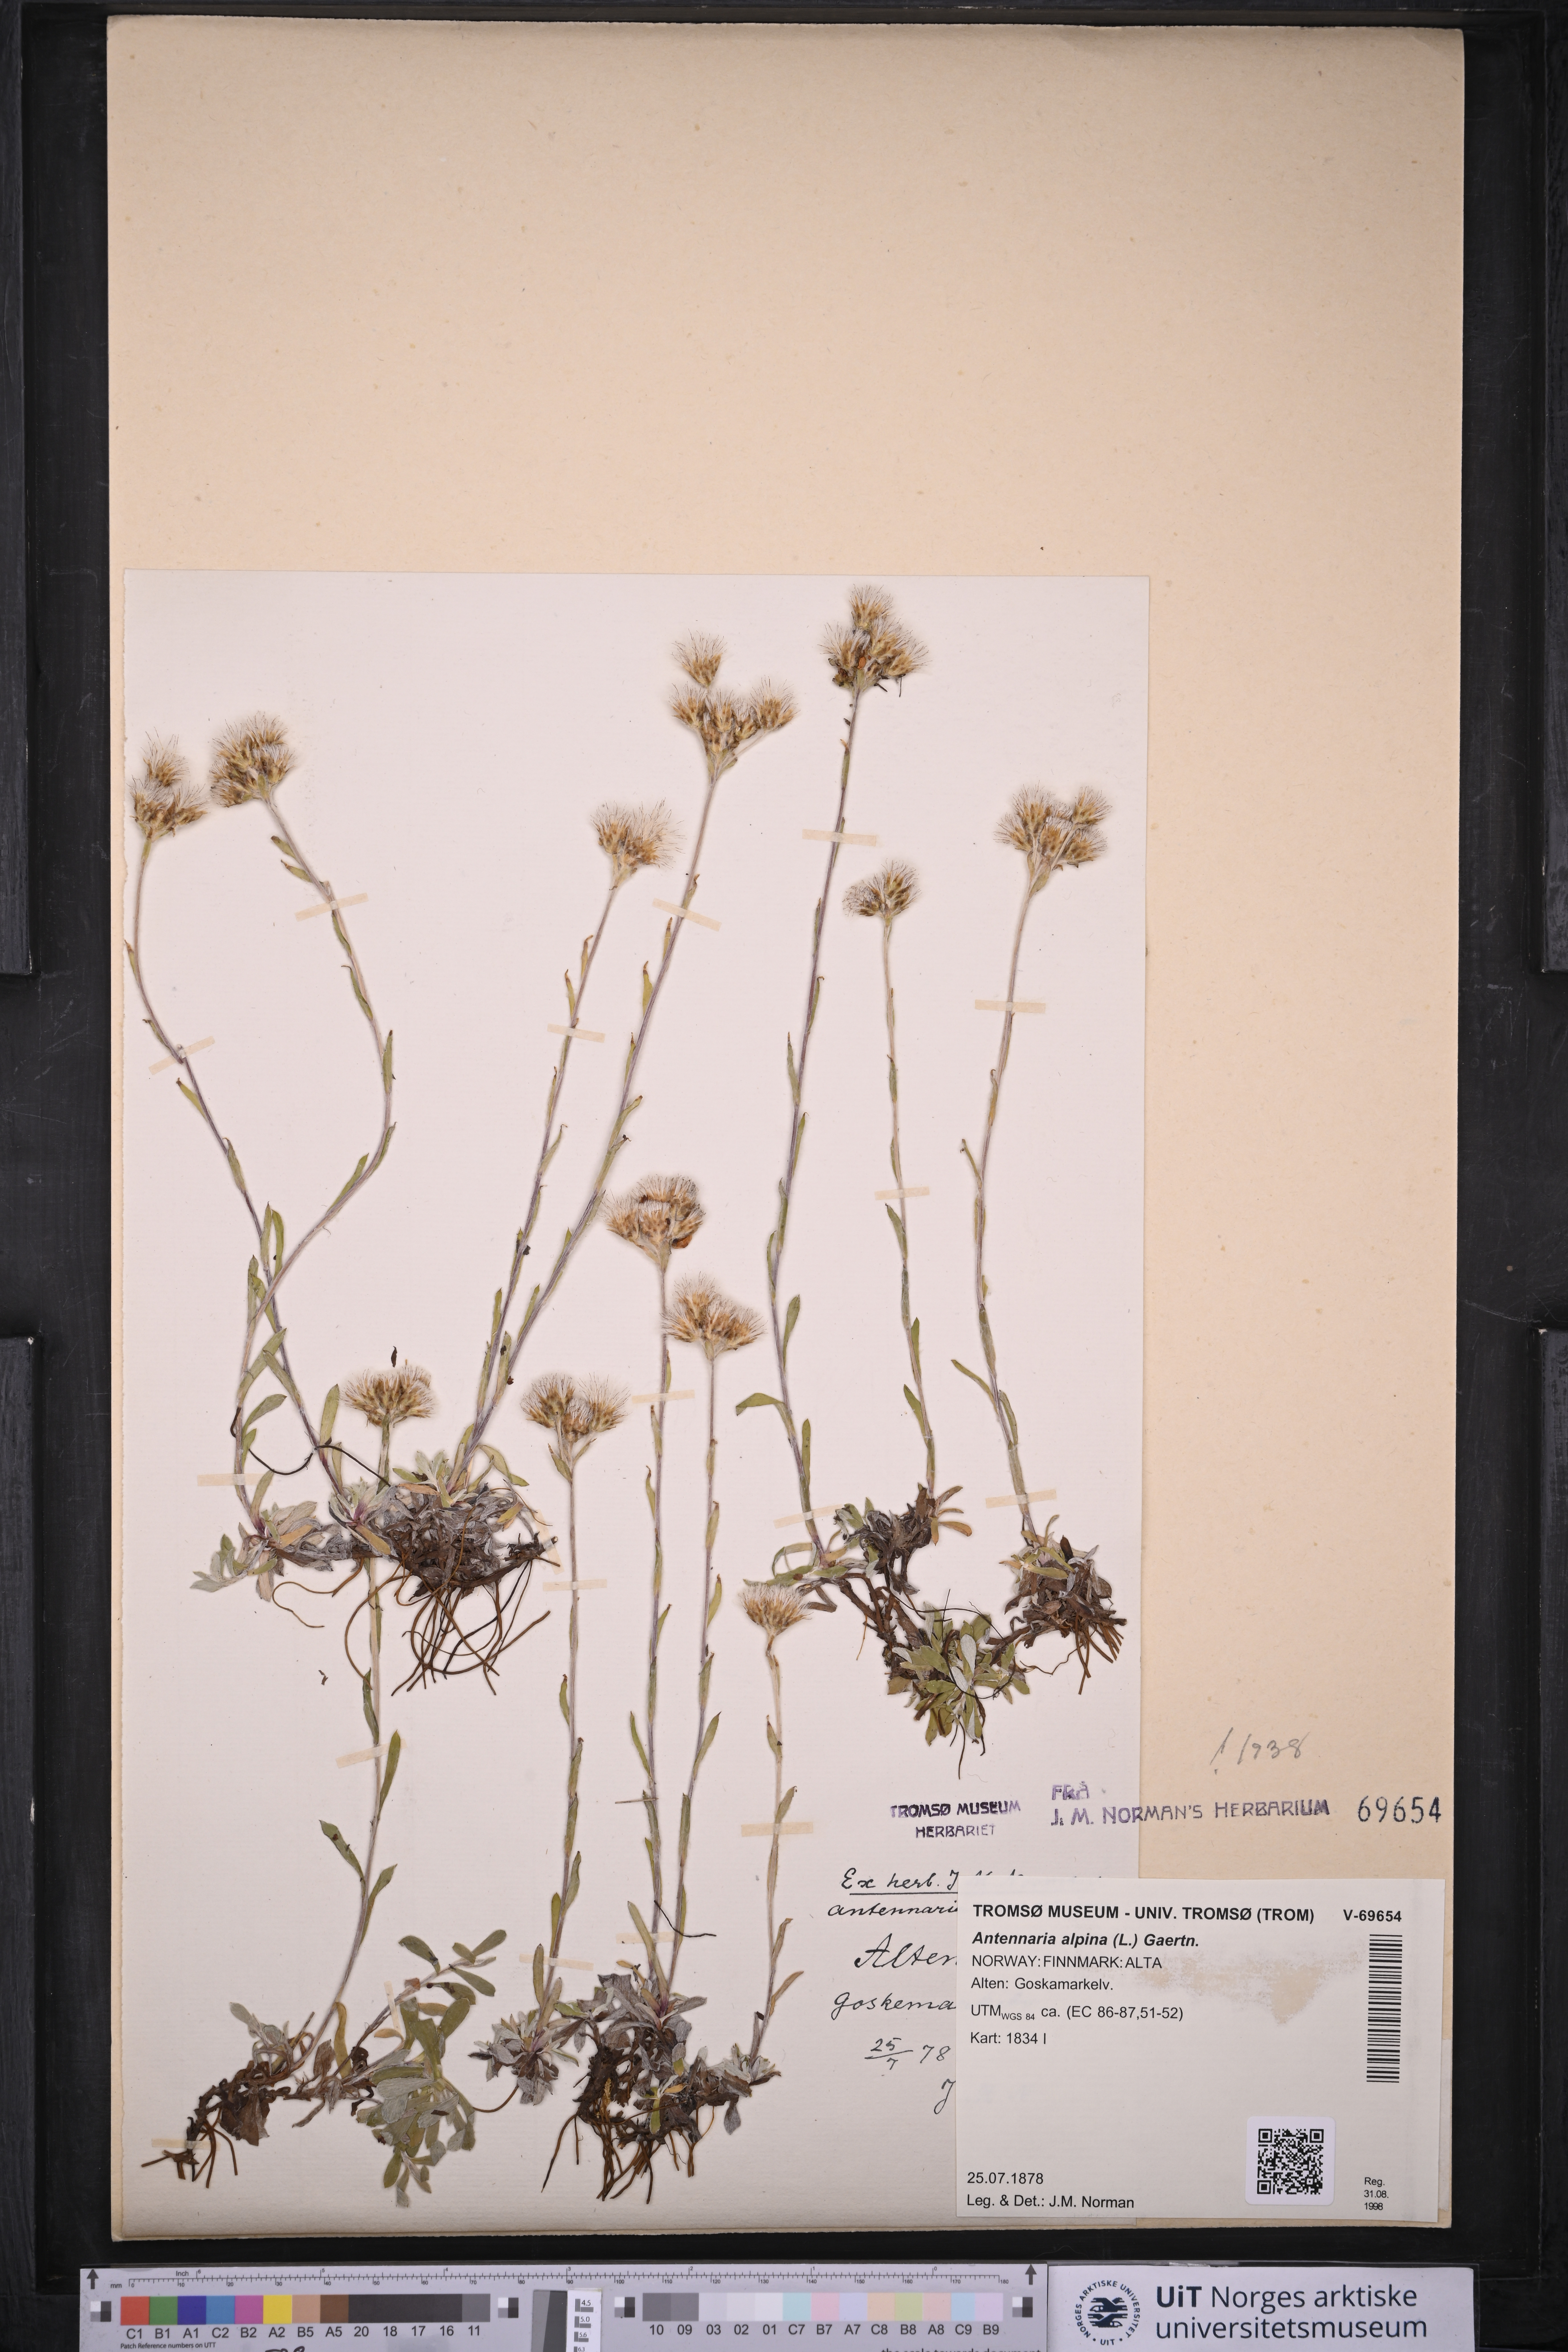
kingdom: Plantae
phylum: Tracheophyta
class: Magnoliopsida
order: Asterales
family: Asteraceae
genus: Antennaria
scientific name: Antennaria alpina
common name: Alpine pussytoes
